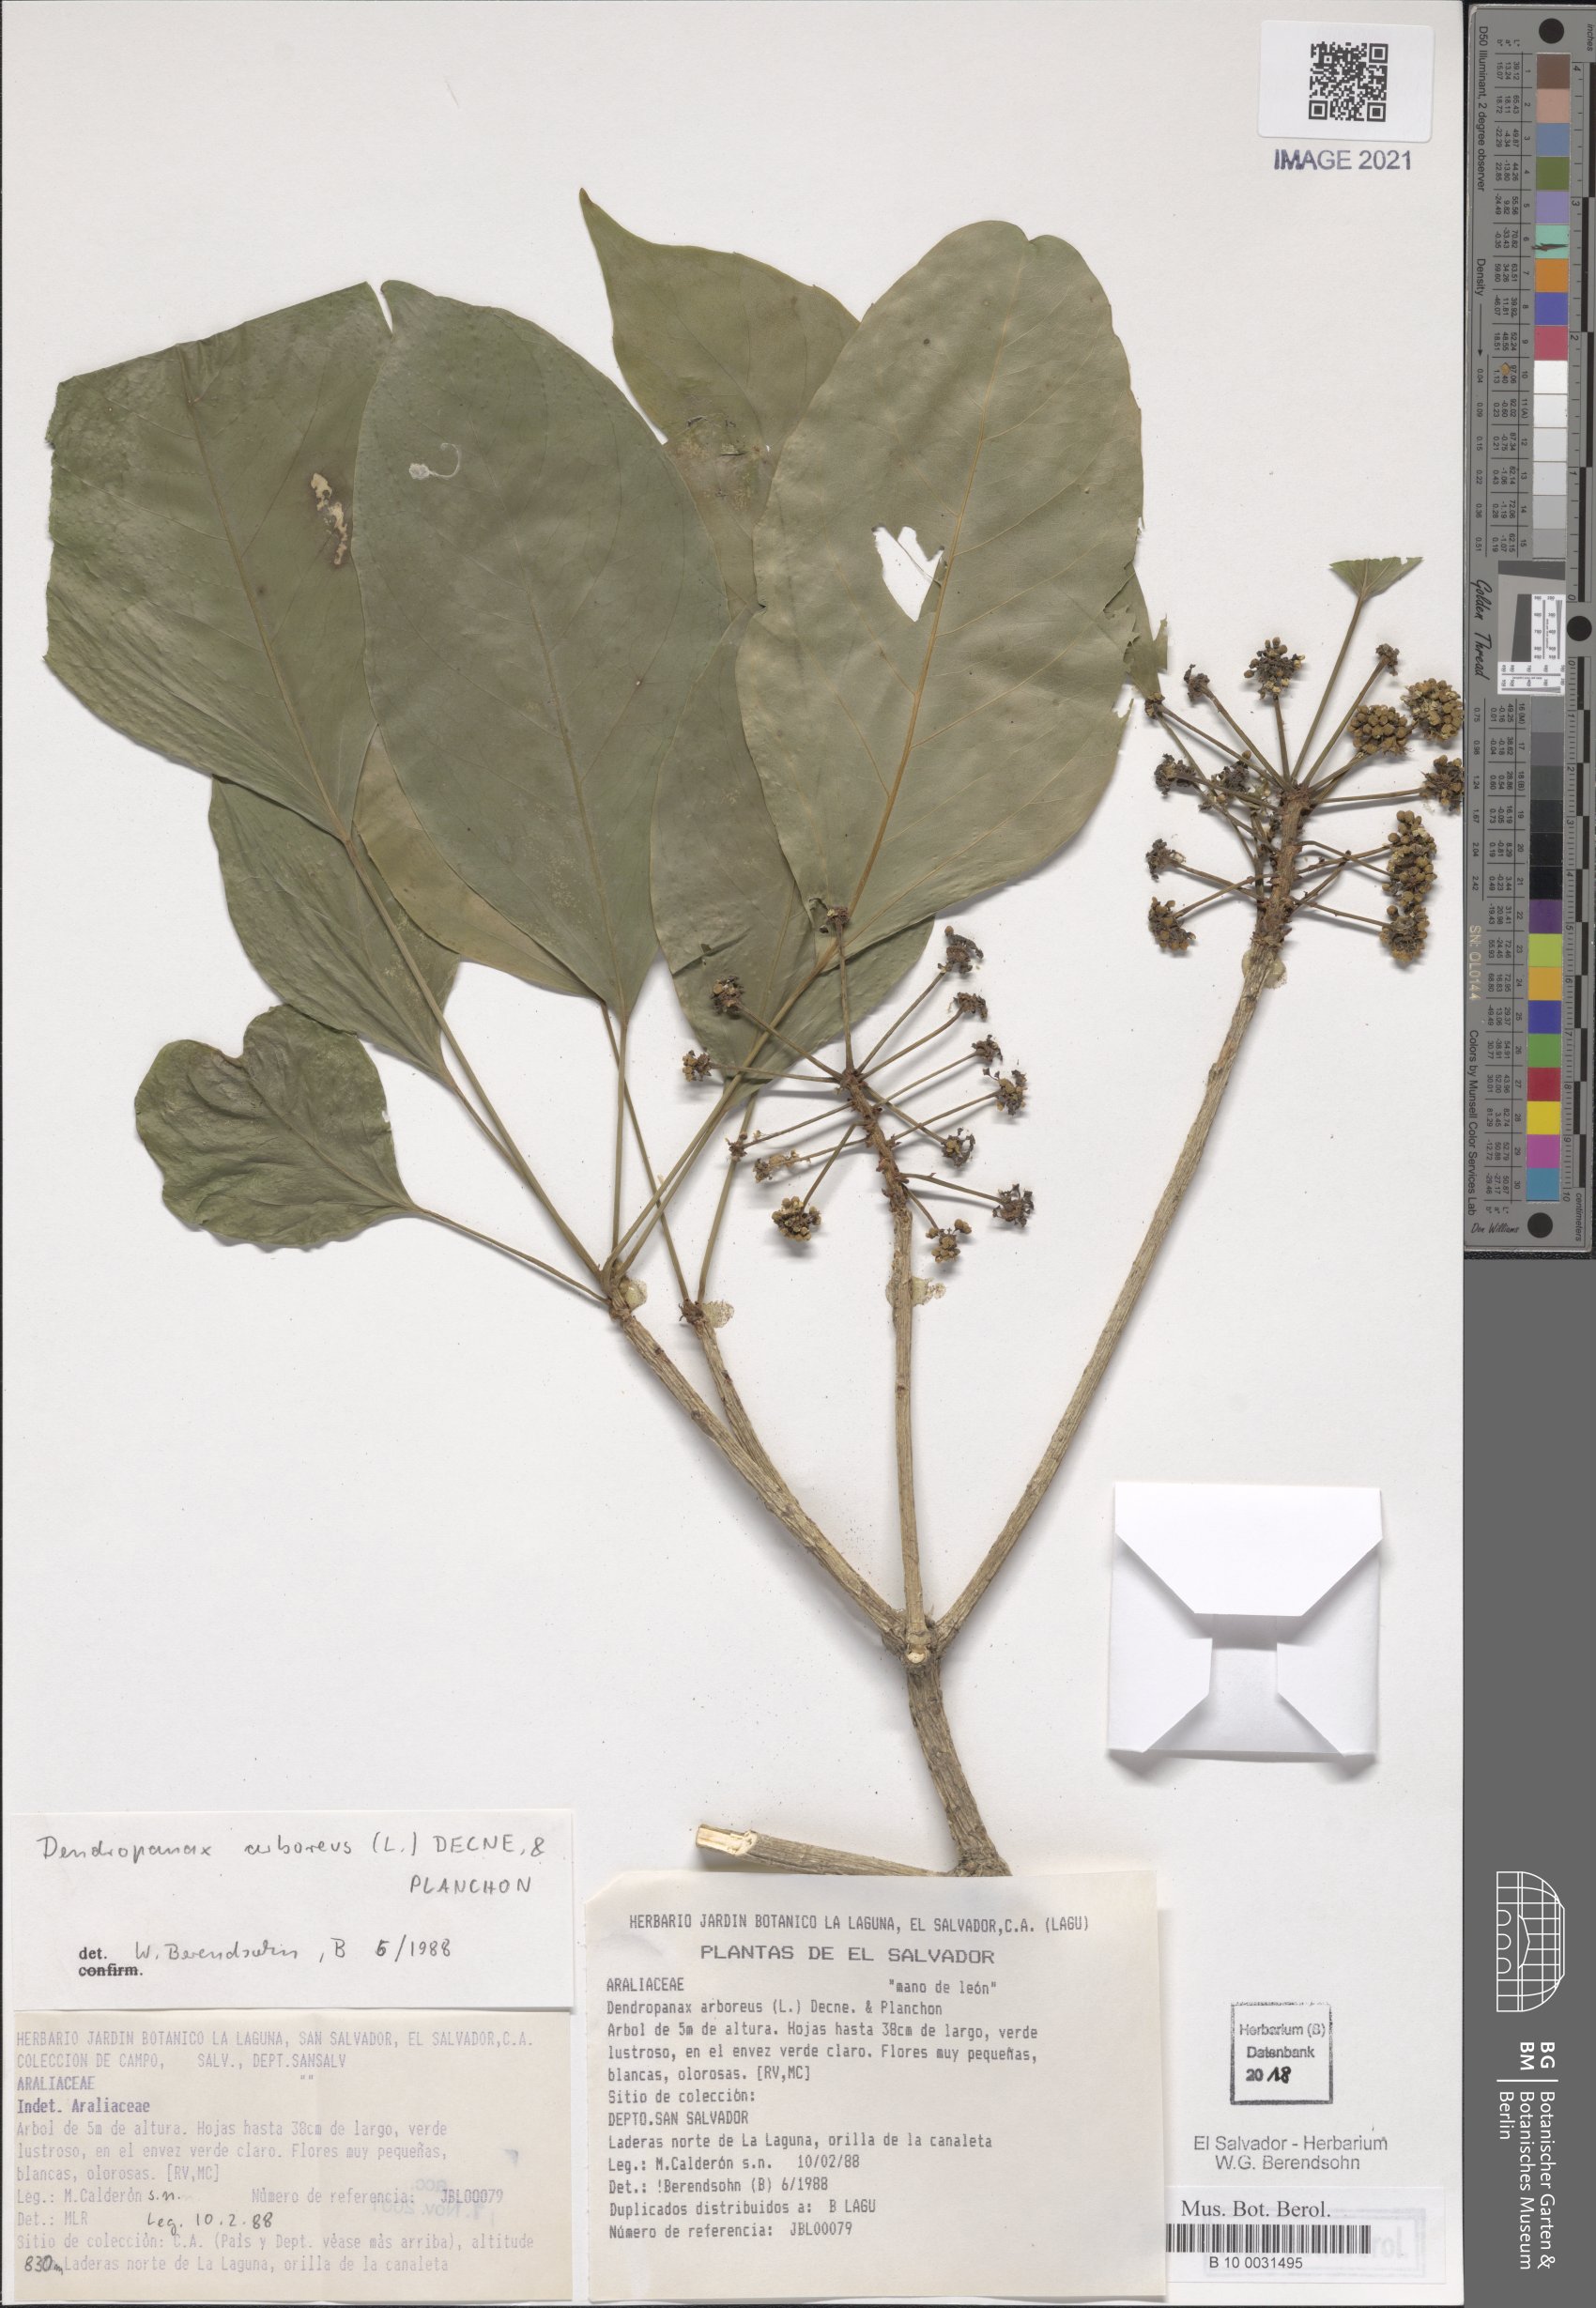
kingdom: Plantae
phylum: Tracheophyta
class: Magnoliopsida
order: Apiales
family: Araliaceae
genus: Dendropanax
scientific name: Dendropanax arboreus
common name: Potato-wood
